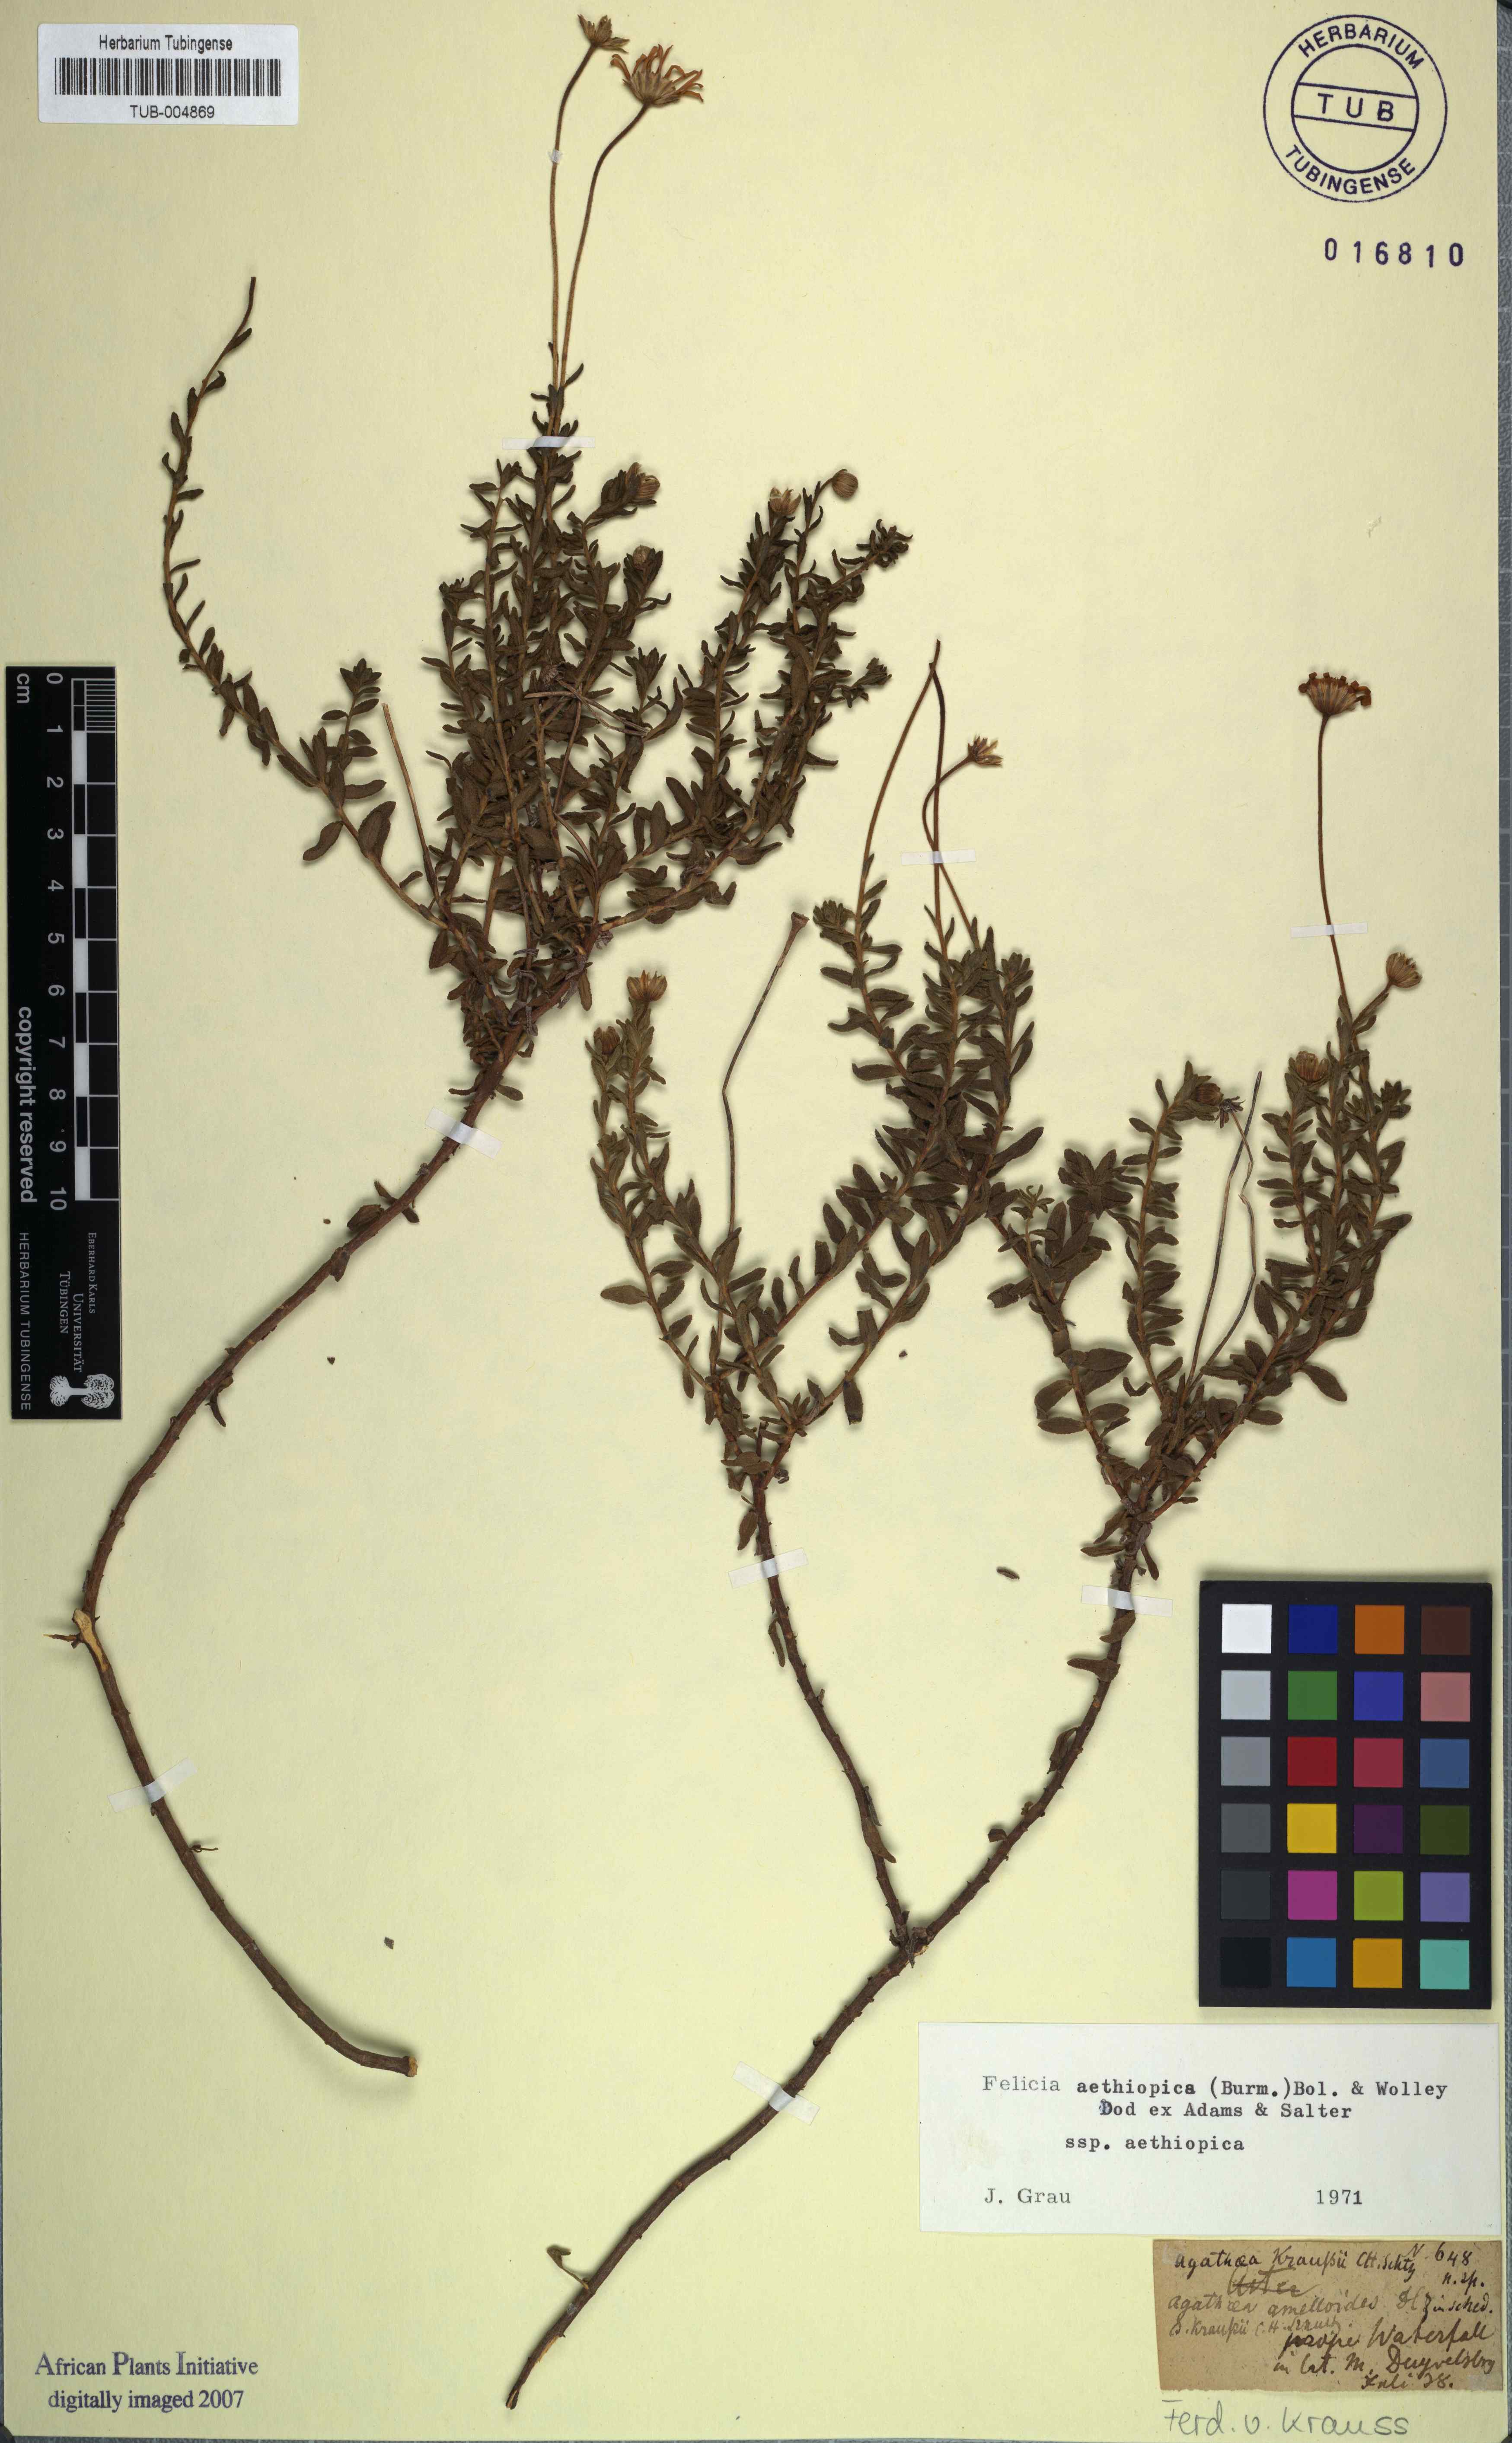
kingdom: Plantae
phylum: Tracheophyta
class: Magnoliopsida
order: Asterales
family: Asteraceae
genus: Felicia
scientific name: Felicia aethiopica
